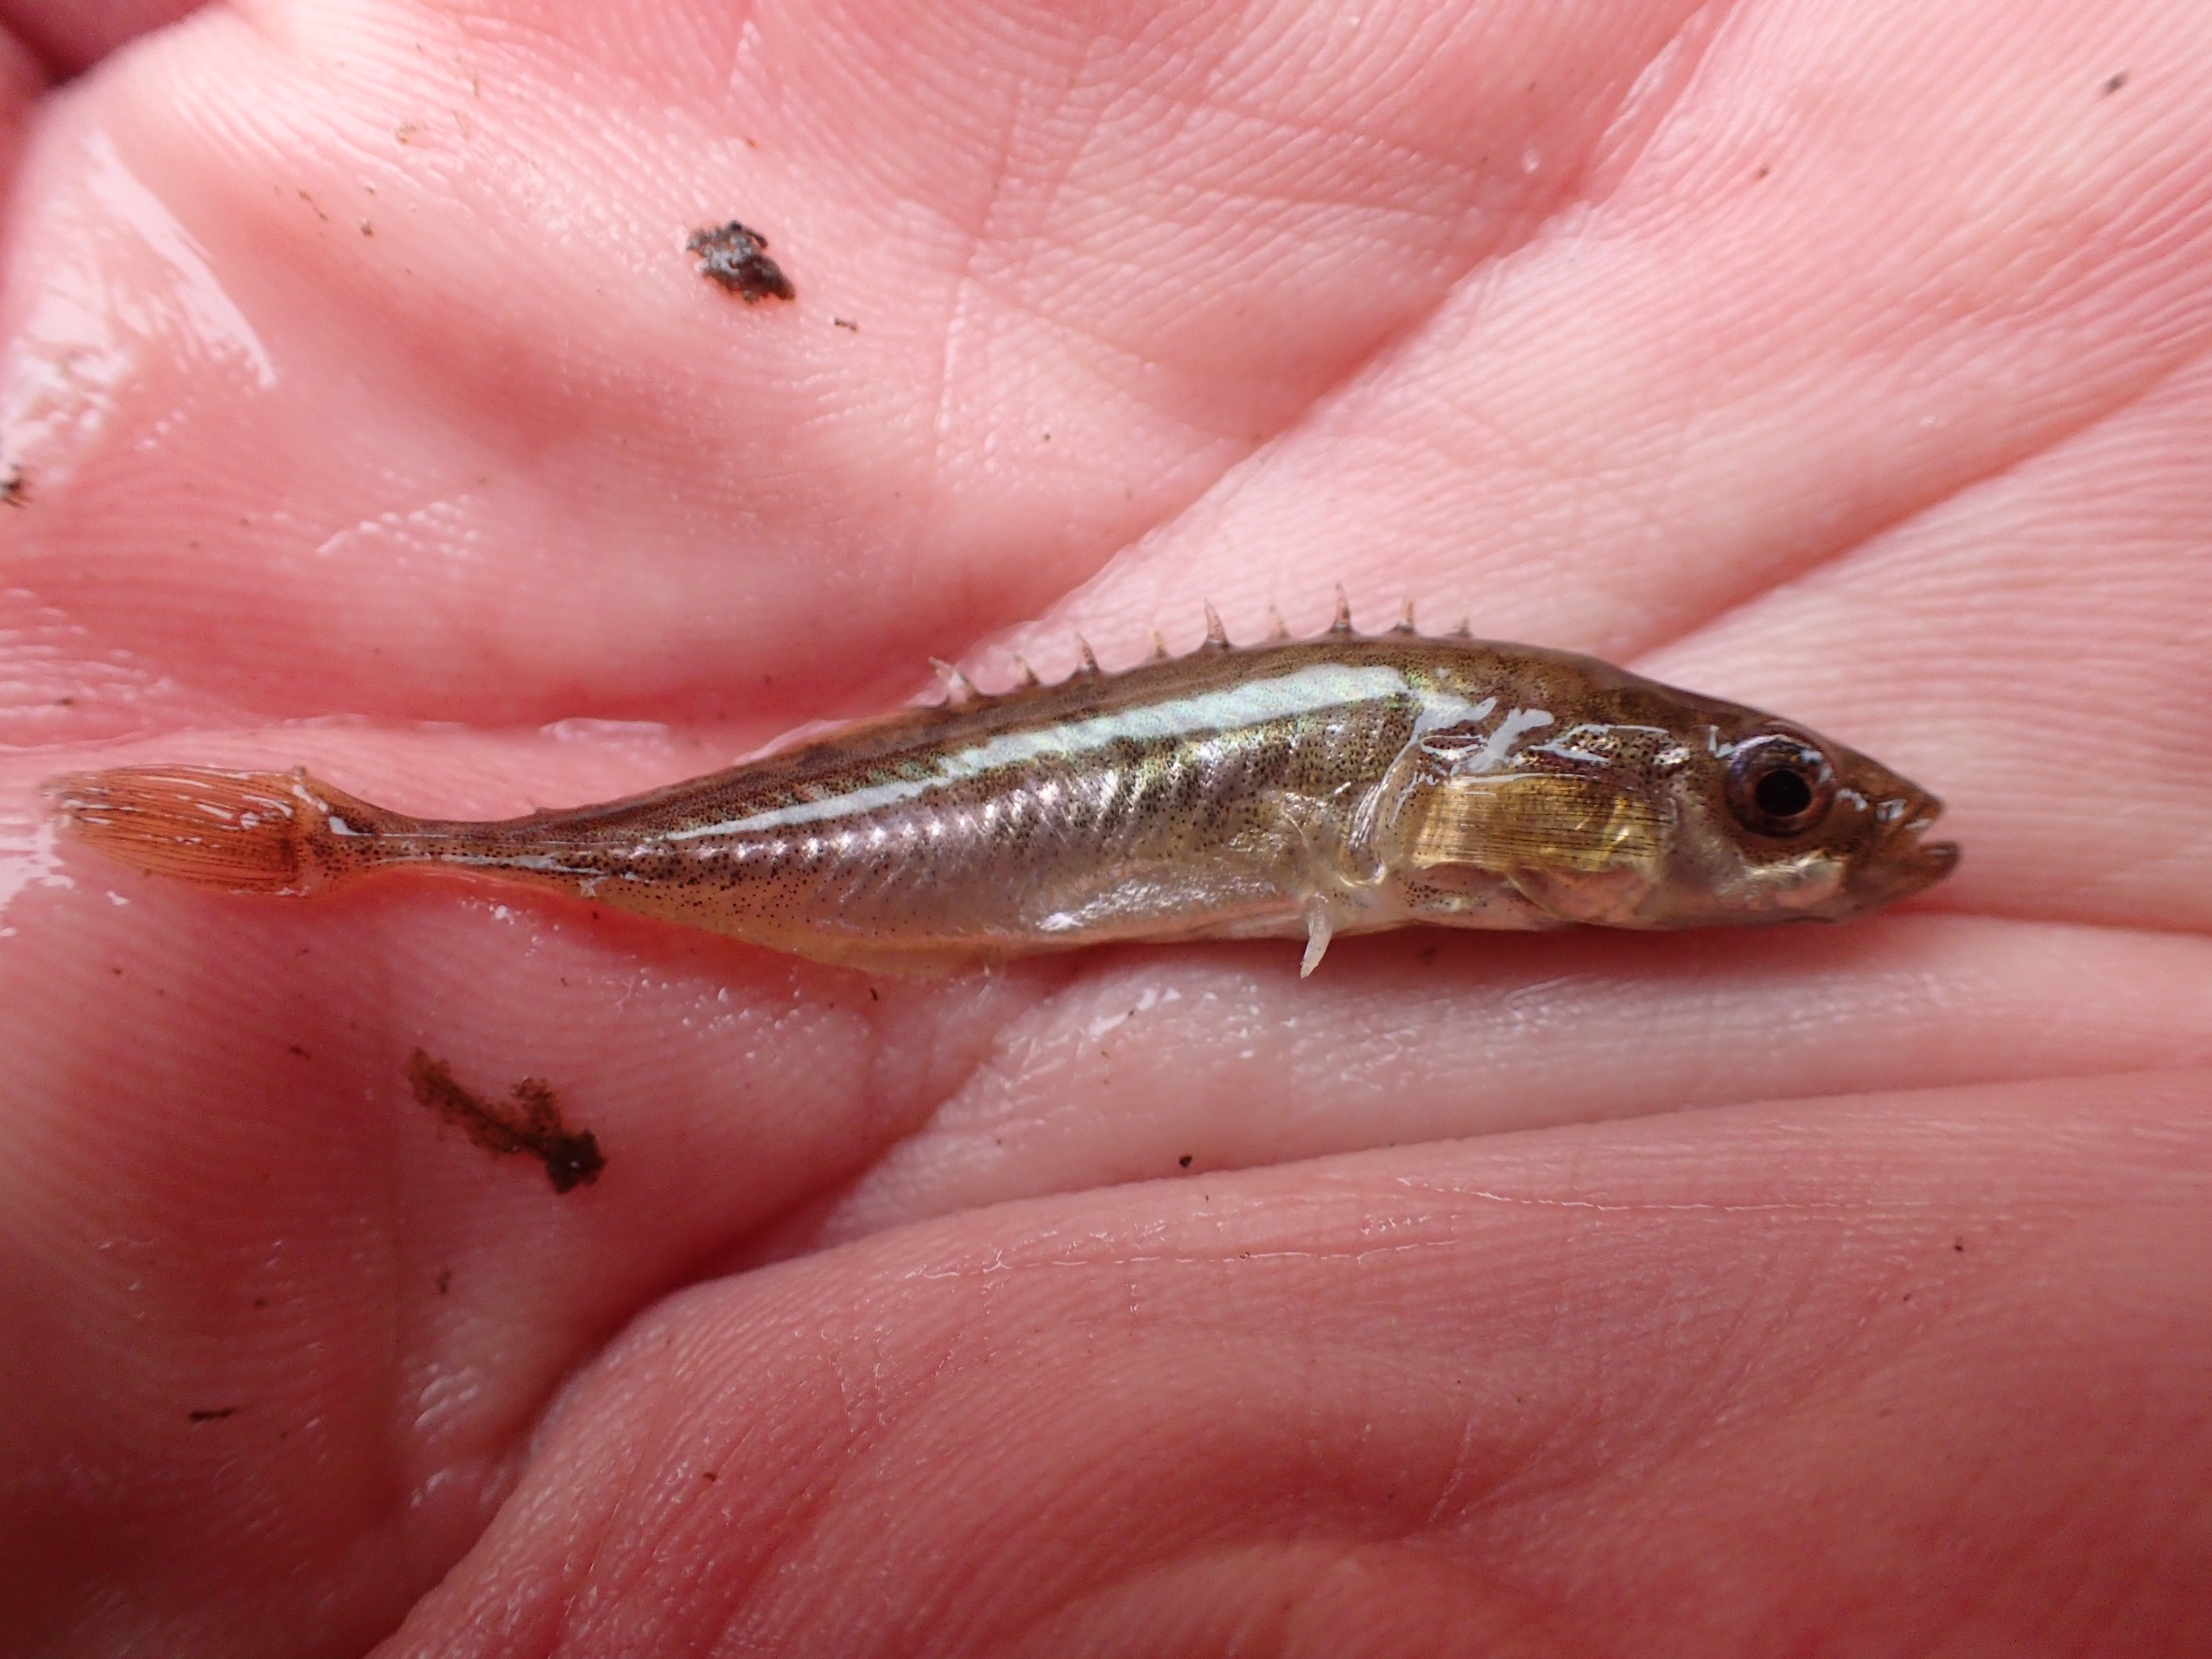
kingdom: Animalia
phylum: Chordata
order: Gasterosteiformes
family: Gasterosteidae
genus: Pungitius
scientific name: Pungitius pungitius
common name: Nipigget hundestejle
